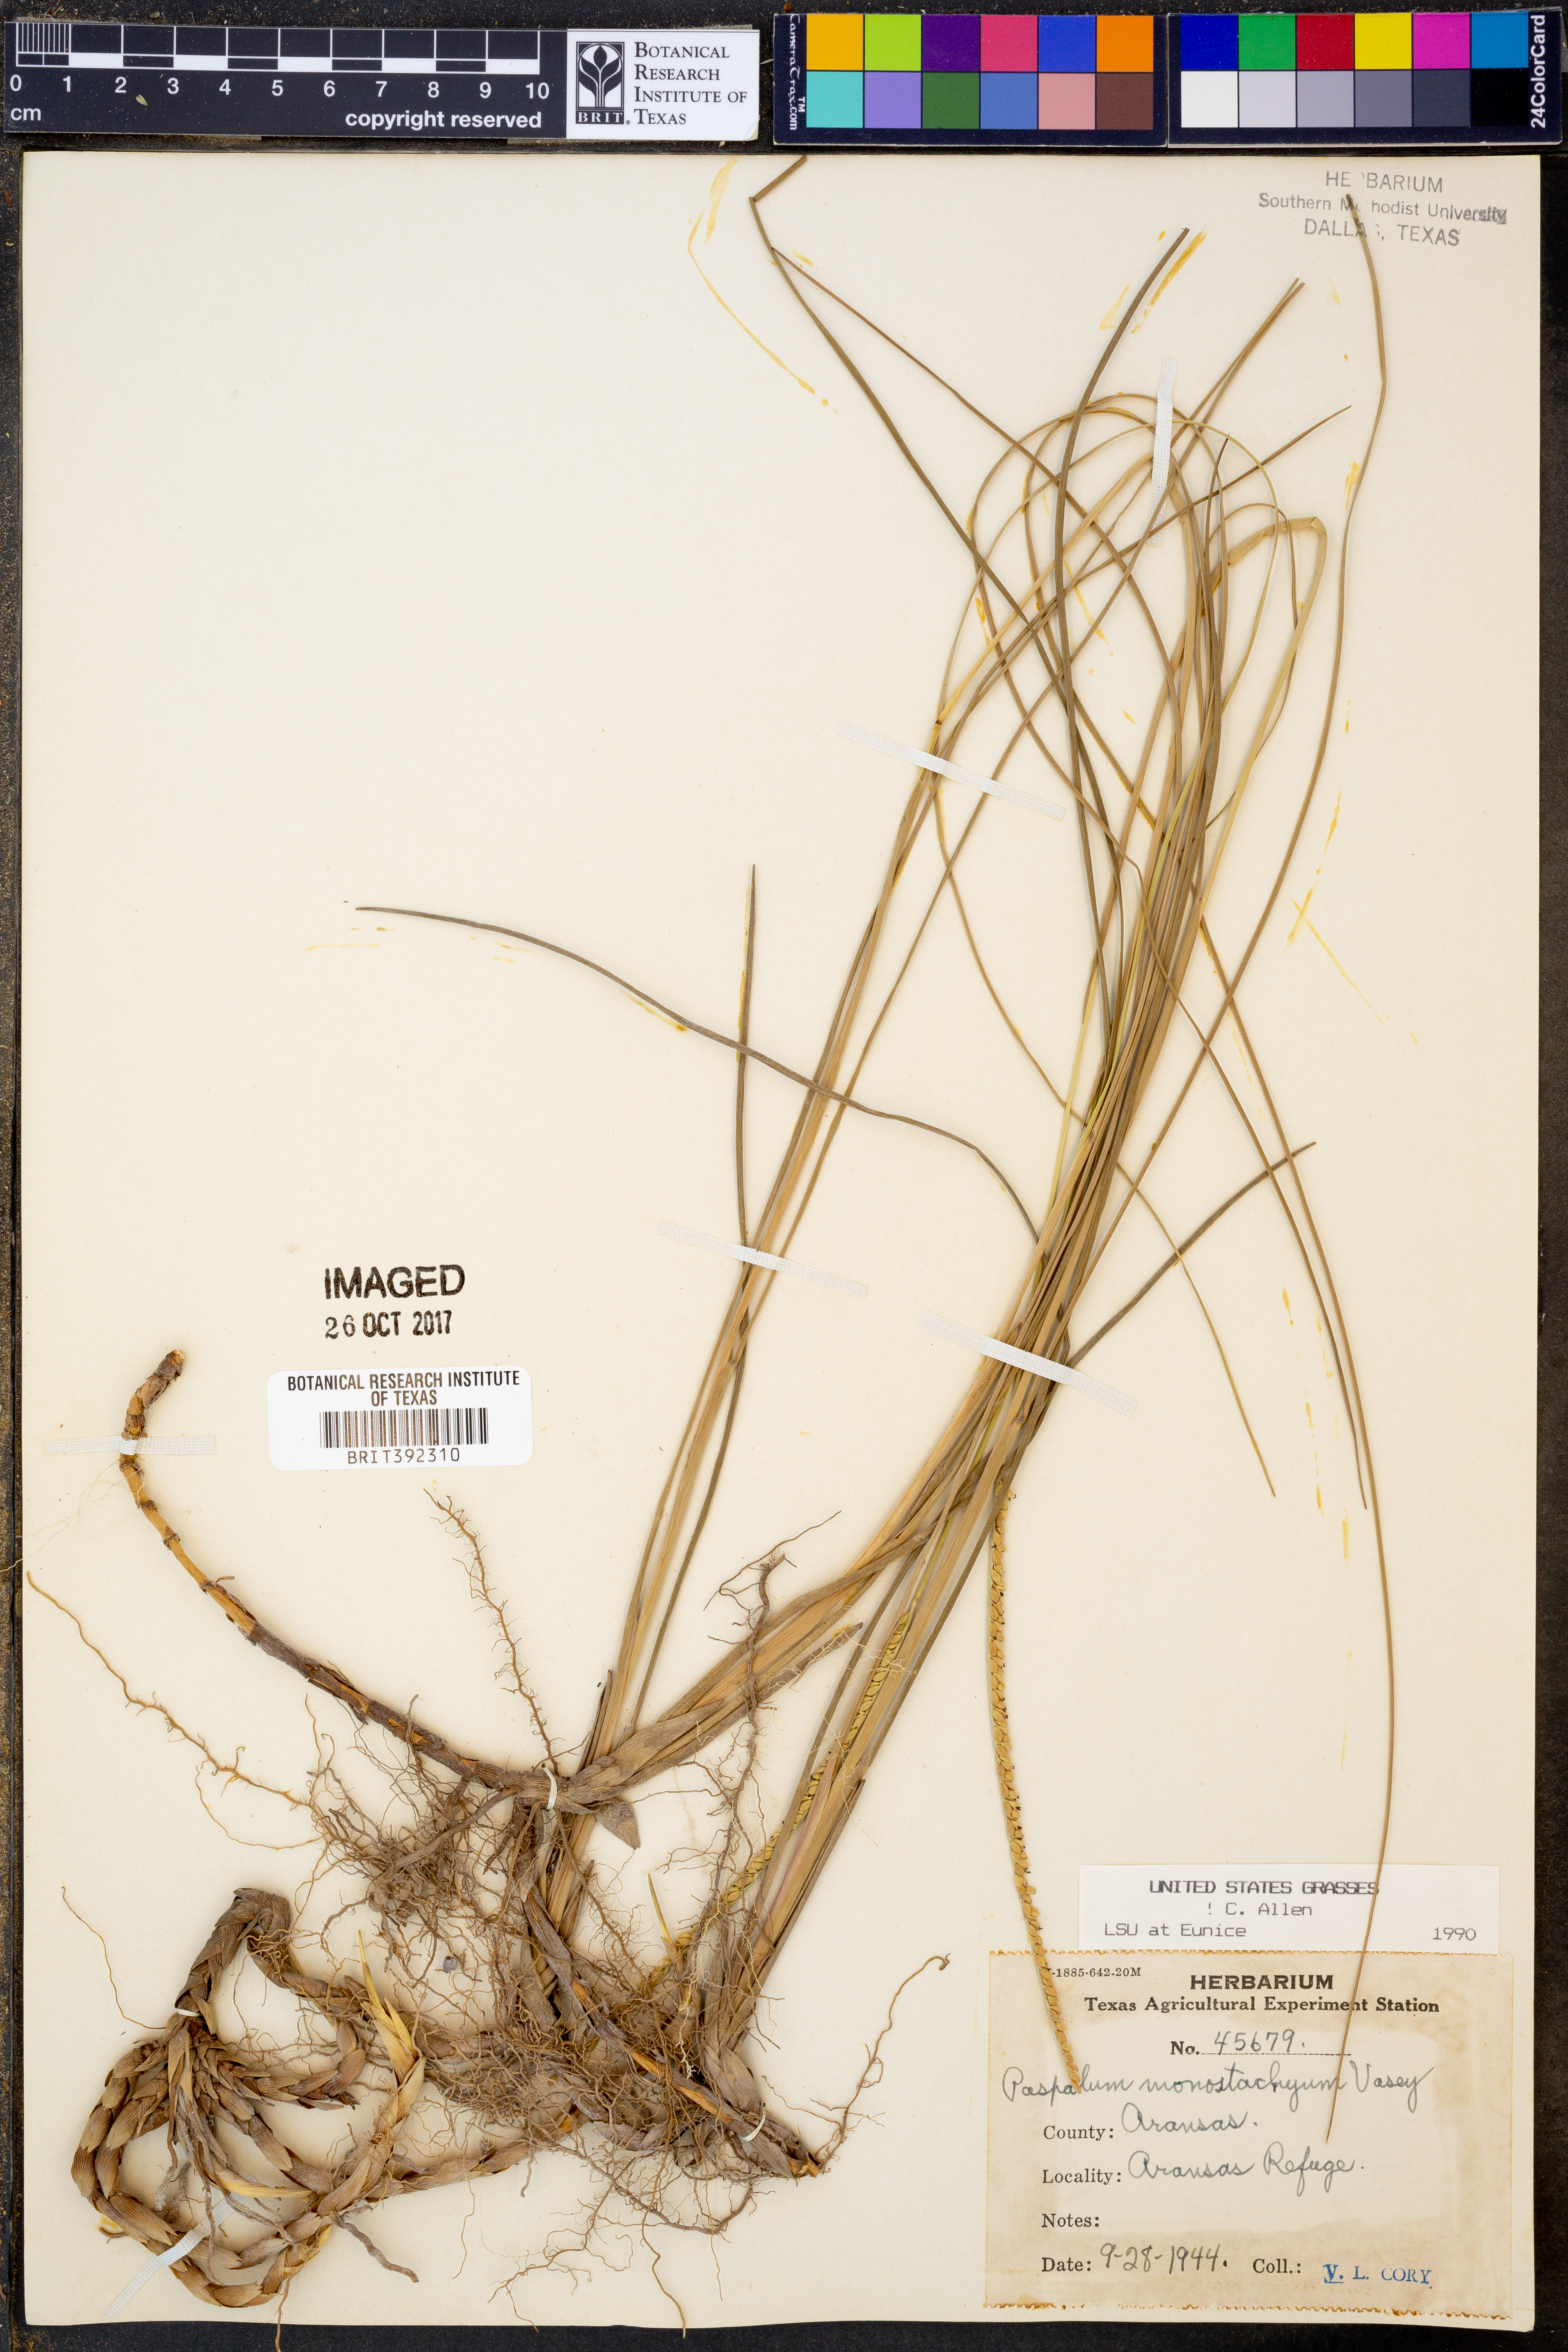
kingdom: Plantae
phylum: Tracheophyta
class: Liliopsida
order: Poales
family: Poaceae
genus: Paspalum
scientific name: Paspalum monostachyum
